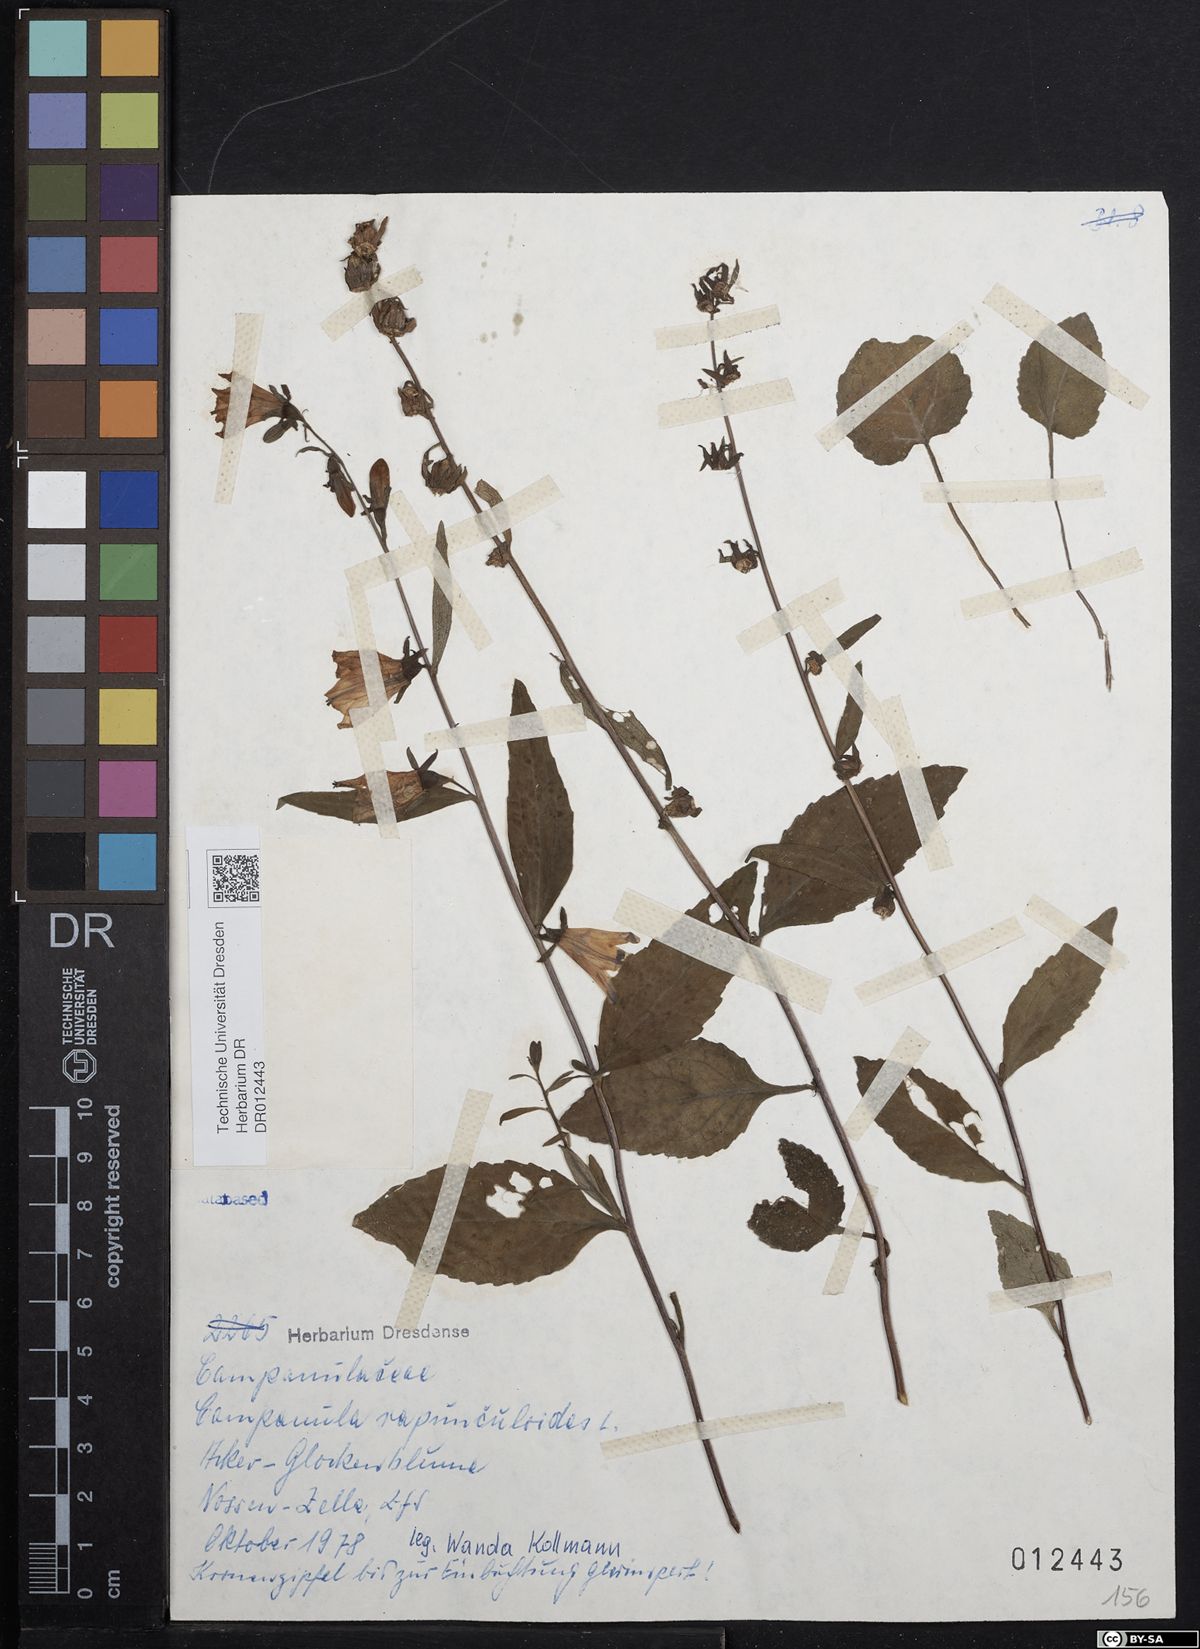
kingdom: Plantae
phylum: Tracheophyta
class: Magnoliopsida
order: Asterales
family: Campanulaceae
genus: Campanula
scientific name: Campanula rapunculoides
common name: Creeping bellflower
